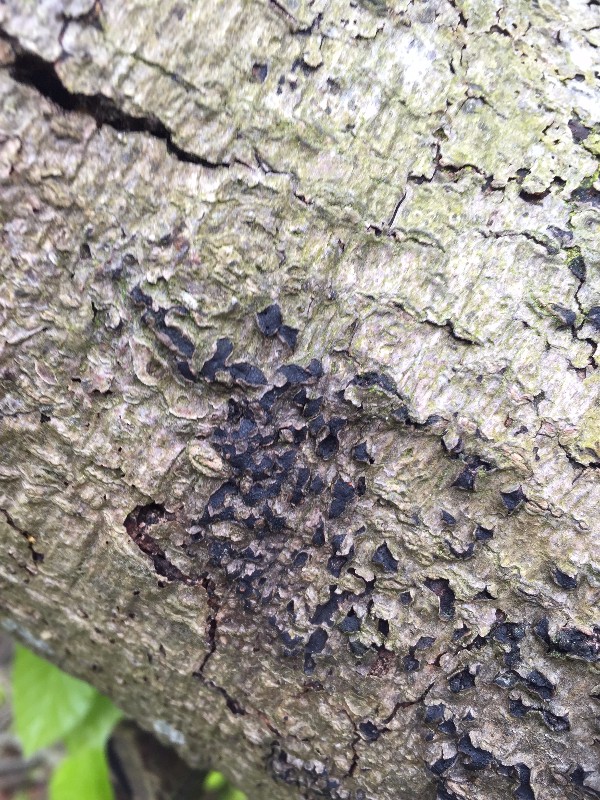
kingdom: Fungi
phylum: Ascomycota
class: Sordariomycetes
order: Sordariales
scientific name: Sordariales
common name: kernesvampordenen
